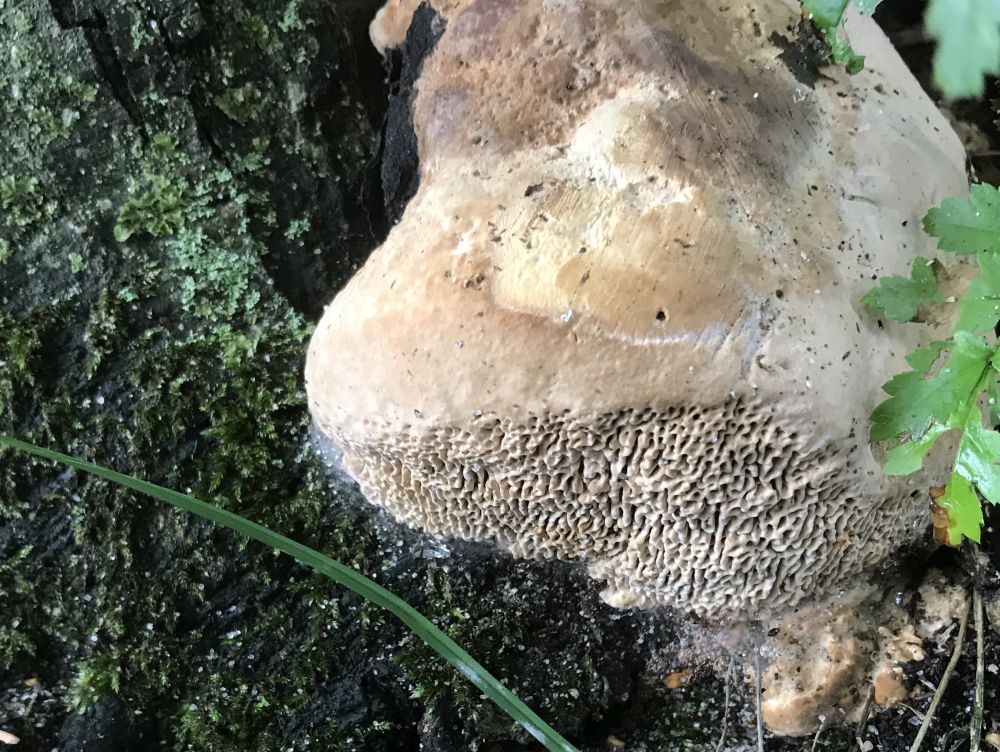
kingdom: Fungi
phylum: Basidiomycota
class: Agaricomycetes
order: Polyporales
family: Fomitopsidaceae
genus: Daedalea
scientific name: Daedalea quercina
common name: ege-labyrintsvamp
